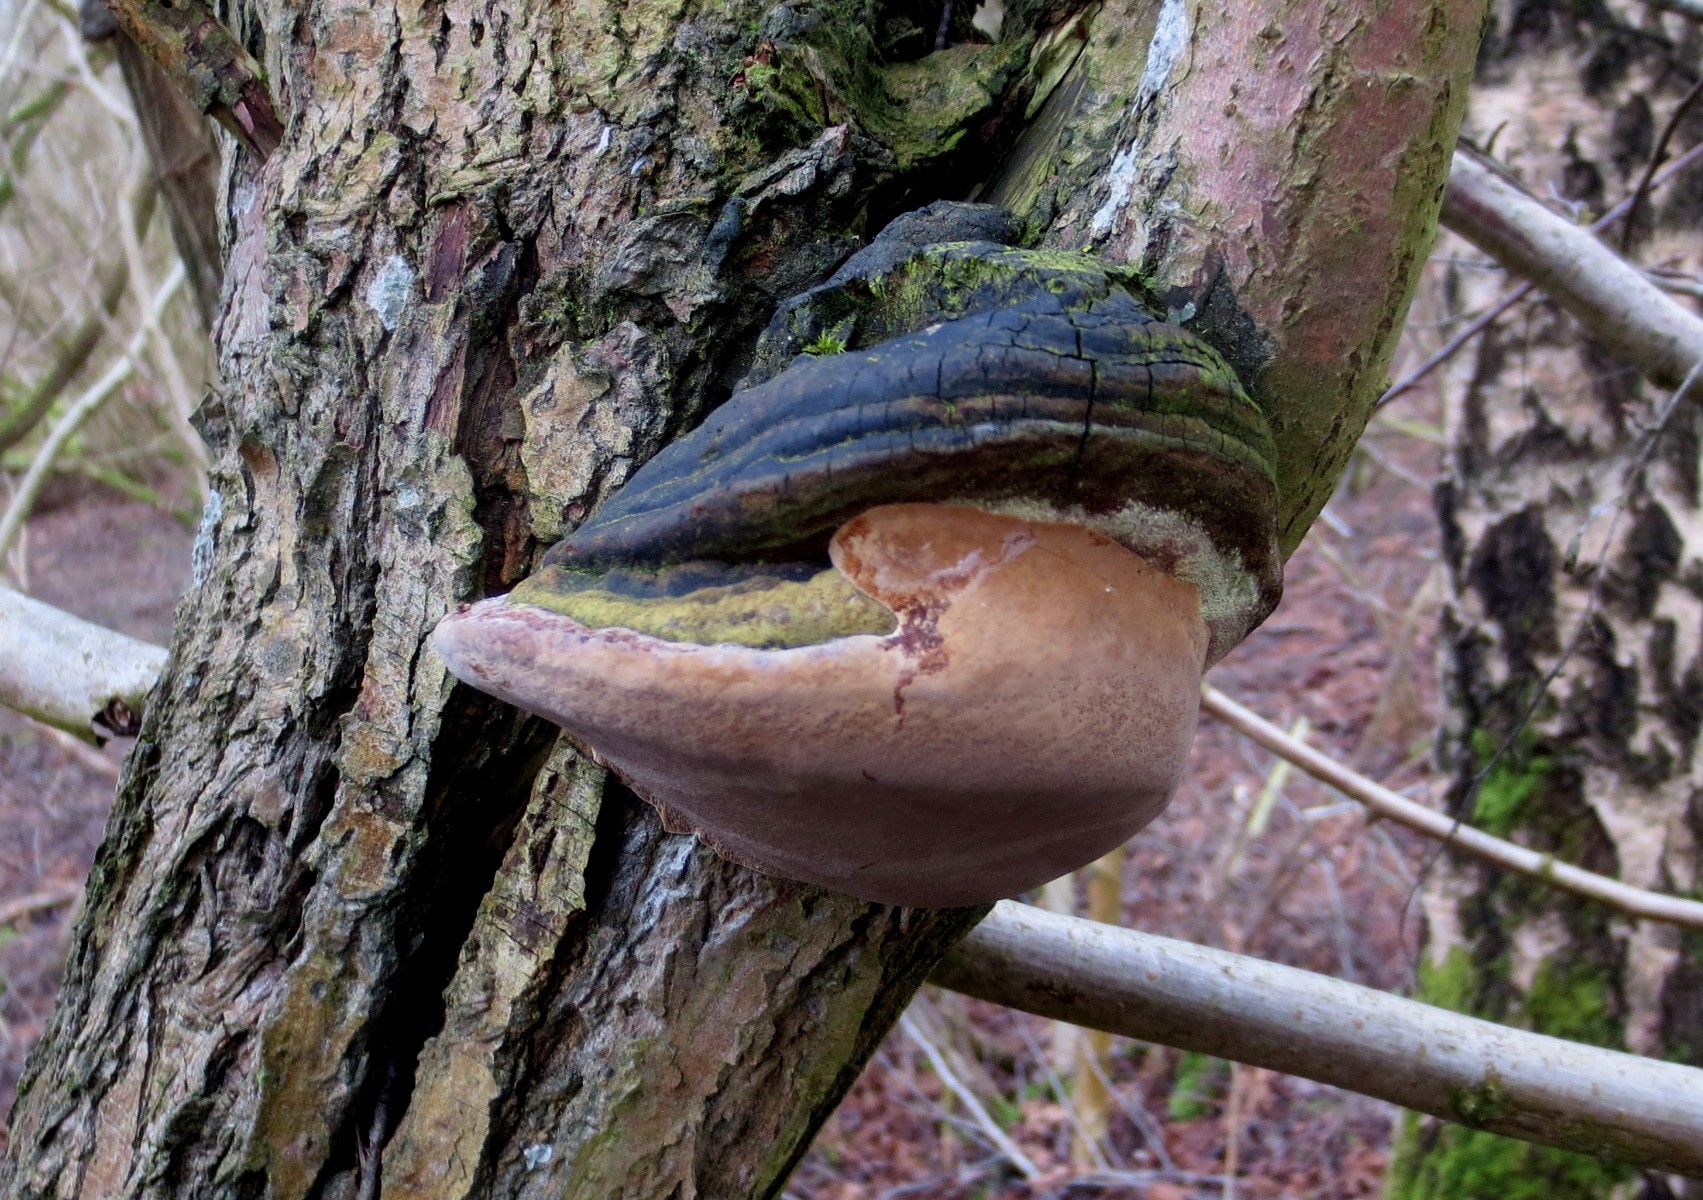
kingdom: Fungi
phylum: Basidiomycota
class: Agaricomycetes
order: Hymenochaetales
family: Hymenochaetaceae
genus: Phellinus
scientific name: Phellinus igniarius
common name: almindelig ildporesvamp
